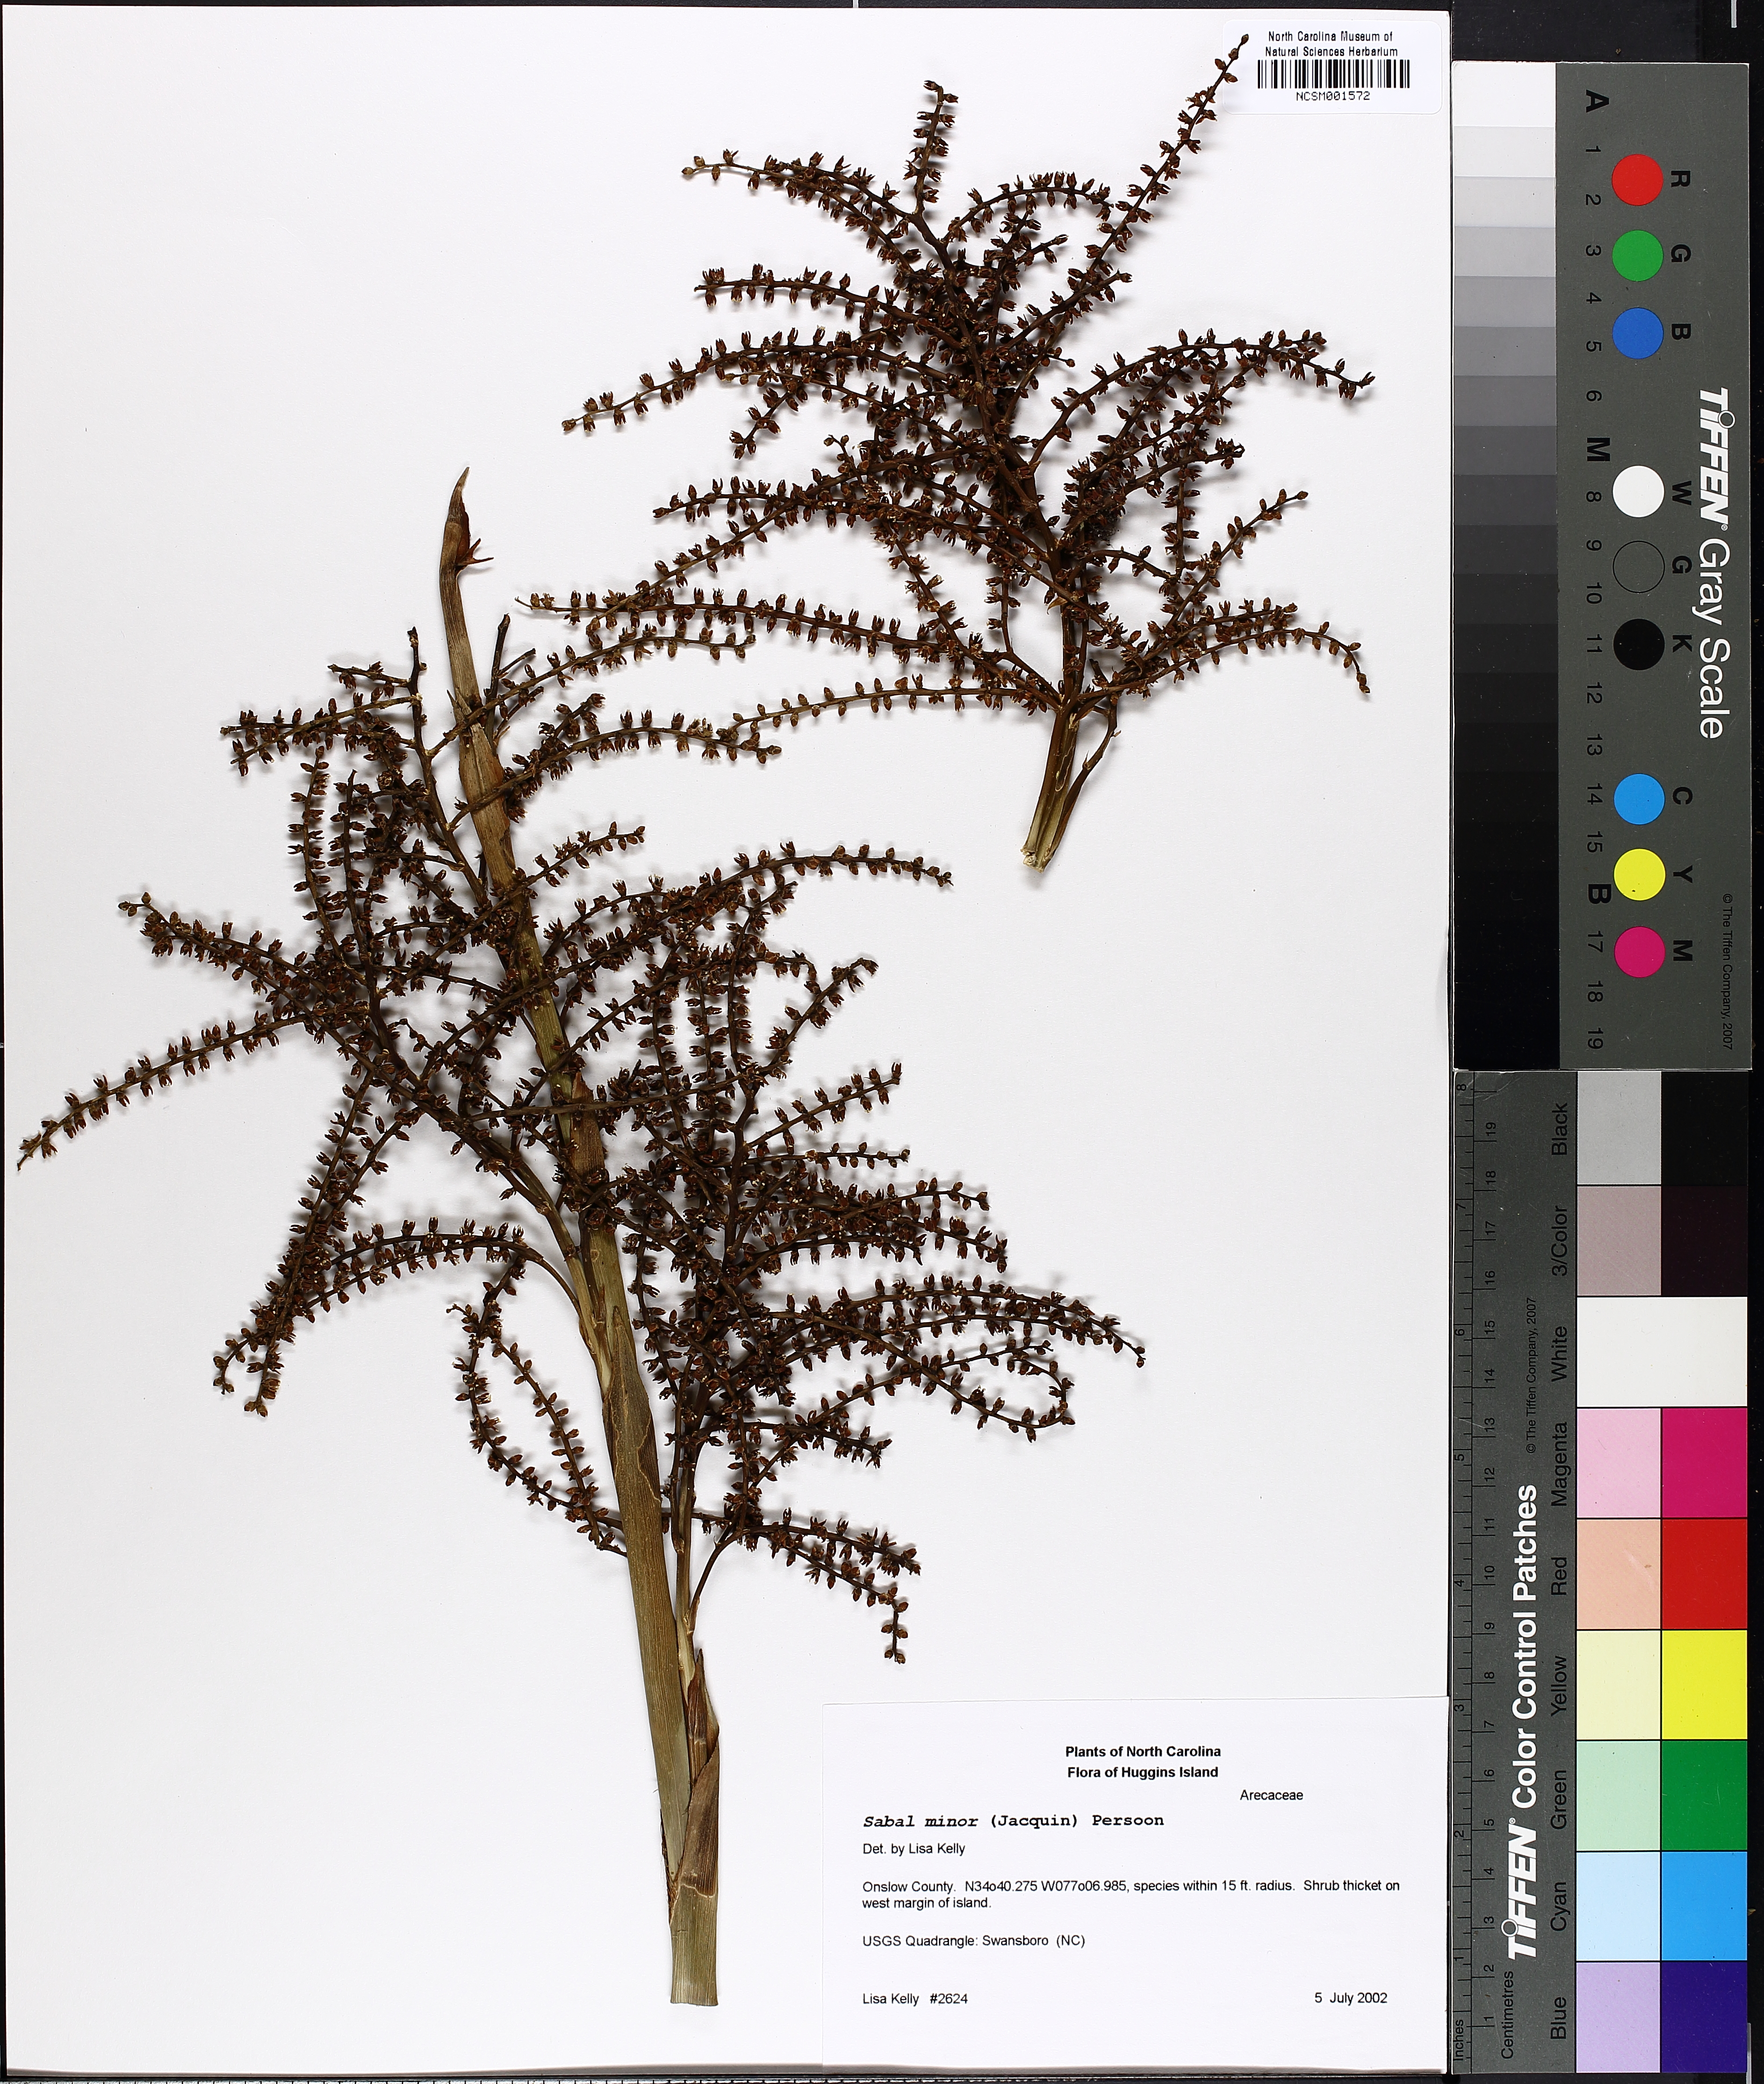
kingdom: Plantae
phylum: Tracheophyta
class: Liliopsida
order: Arecales
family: Arecaceae
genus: Sabal
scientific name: Sabal minor
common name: Dwarf palmetto
